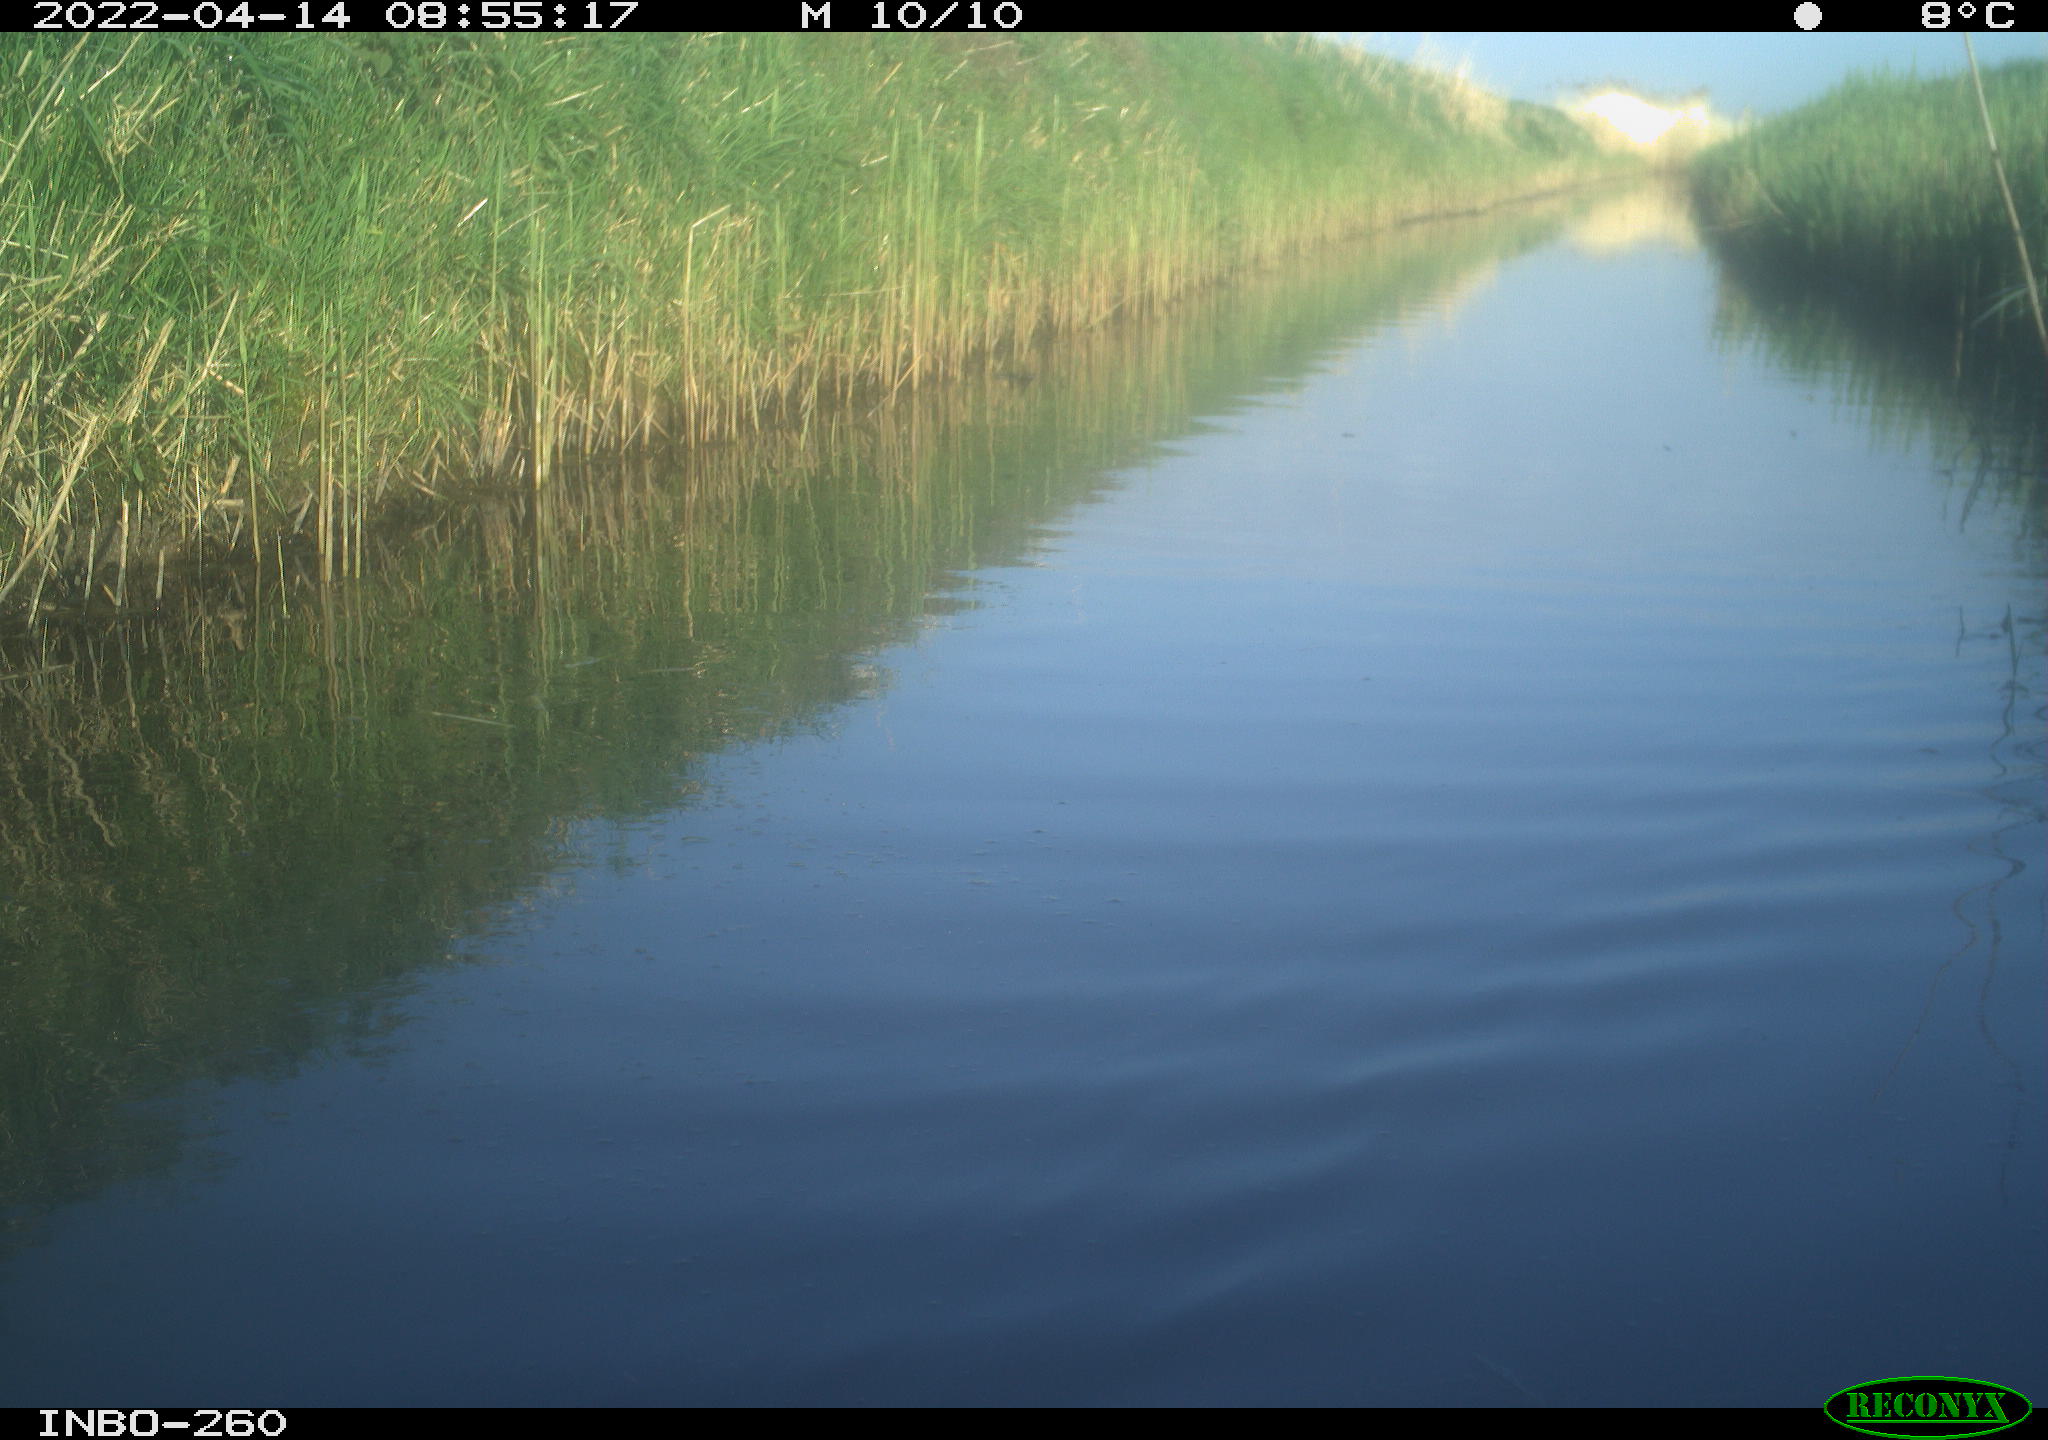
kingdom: Animalia
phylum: Chordata
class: Aves
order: Gruiformes
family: Rallidae
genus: Fulica
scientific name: Fulica atra
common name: Eurasian coot
